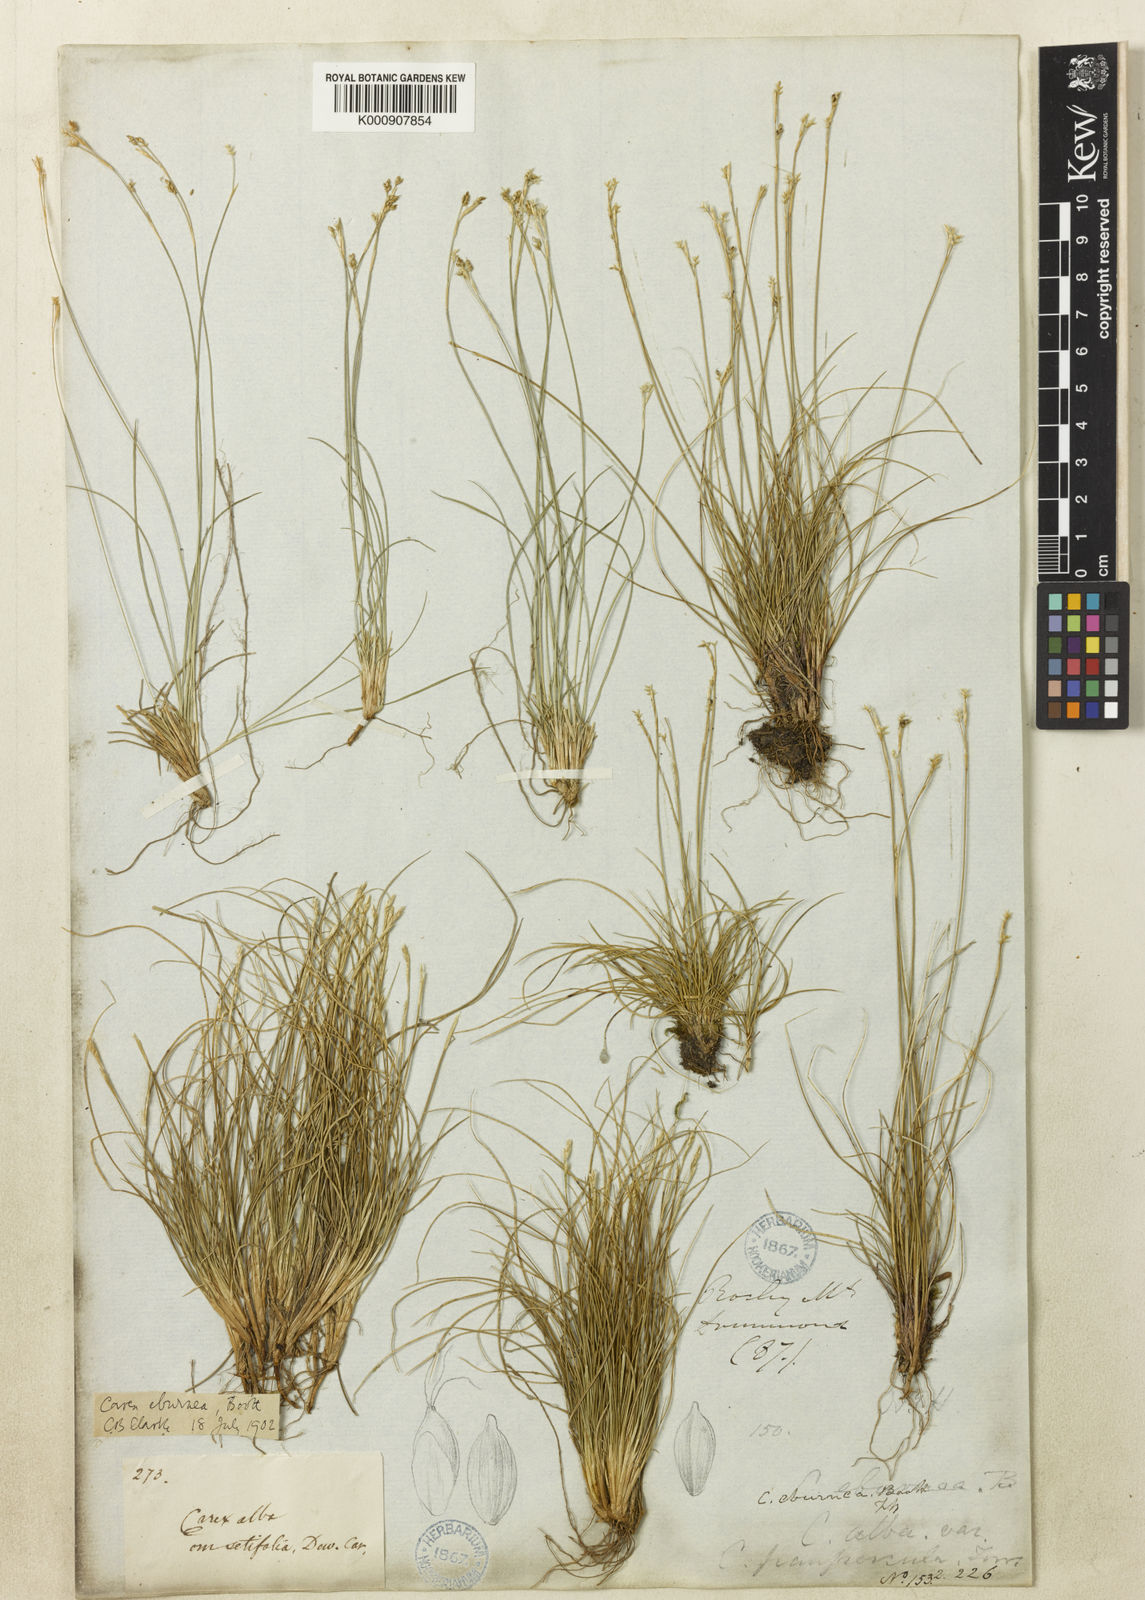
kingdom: Plantae
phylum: Tracheophyta
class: Liliopsida
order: Poales
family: Cyperaceae
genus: Carex
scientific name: Carex eburnea
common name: Bristle-leaved sedge
